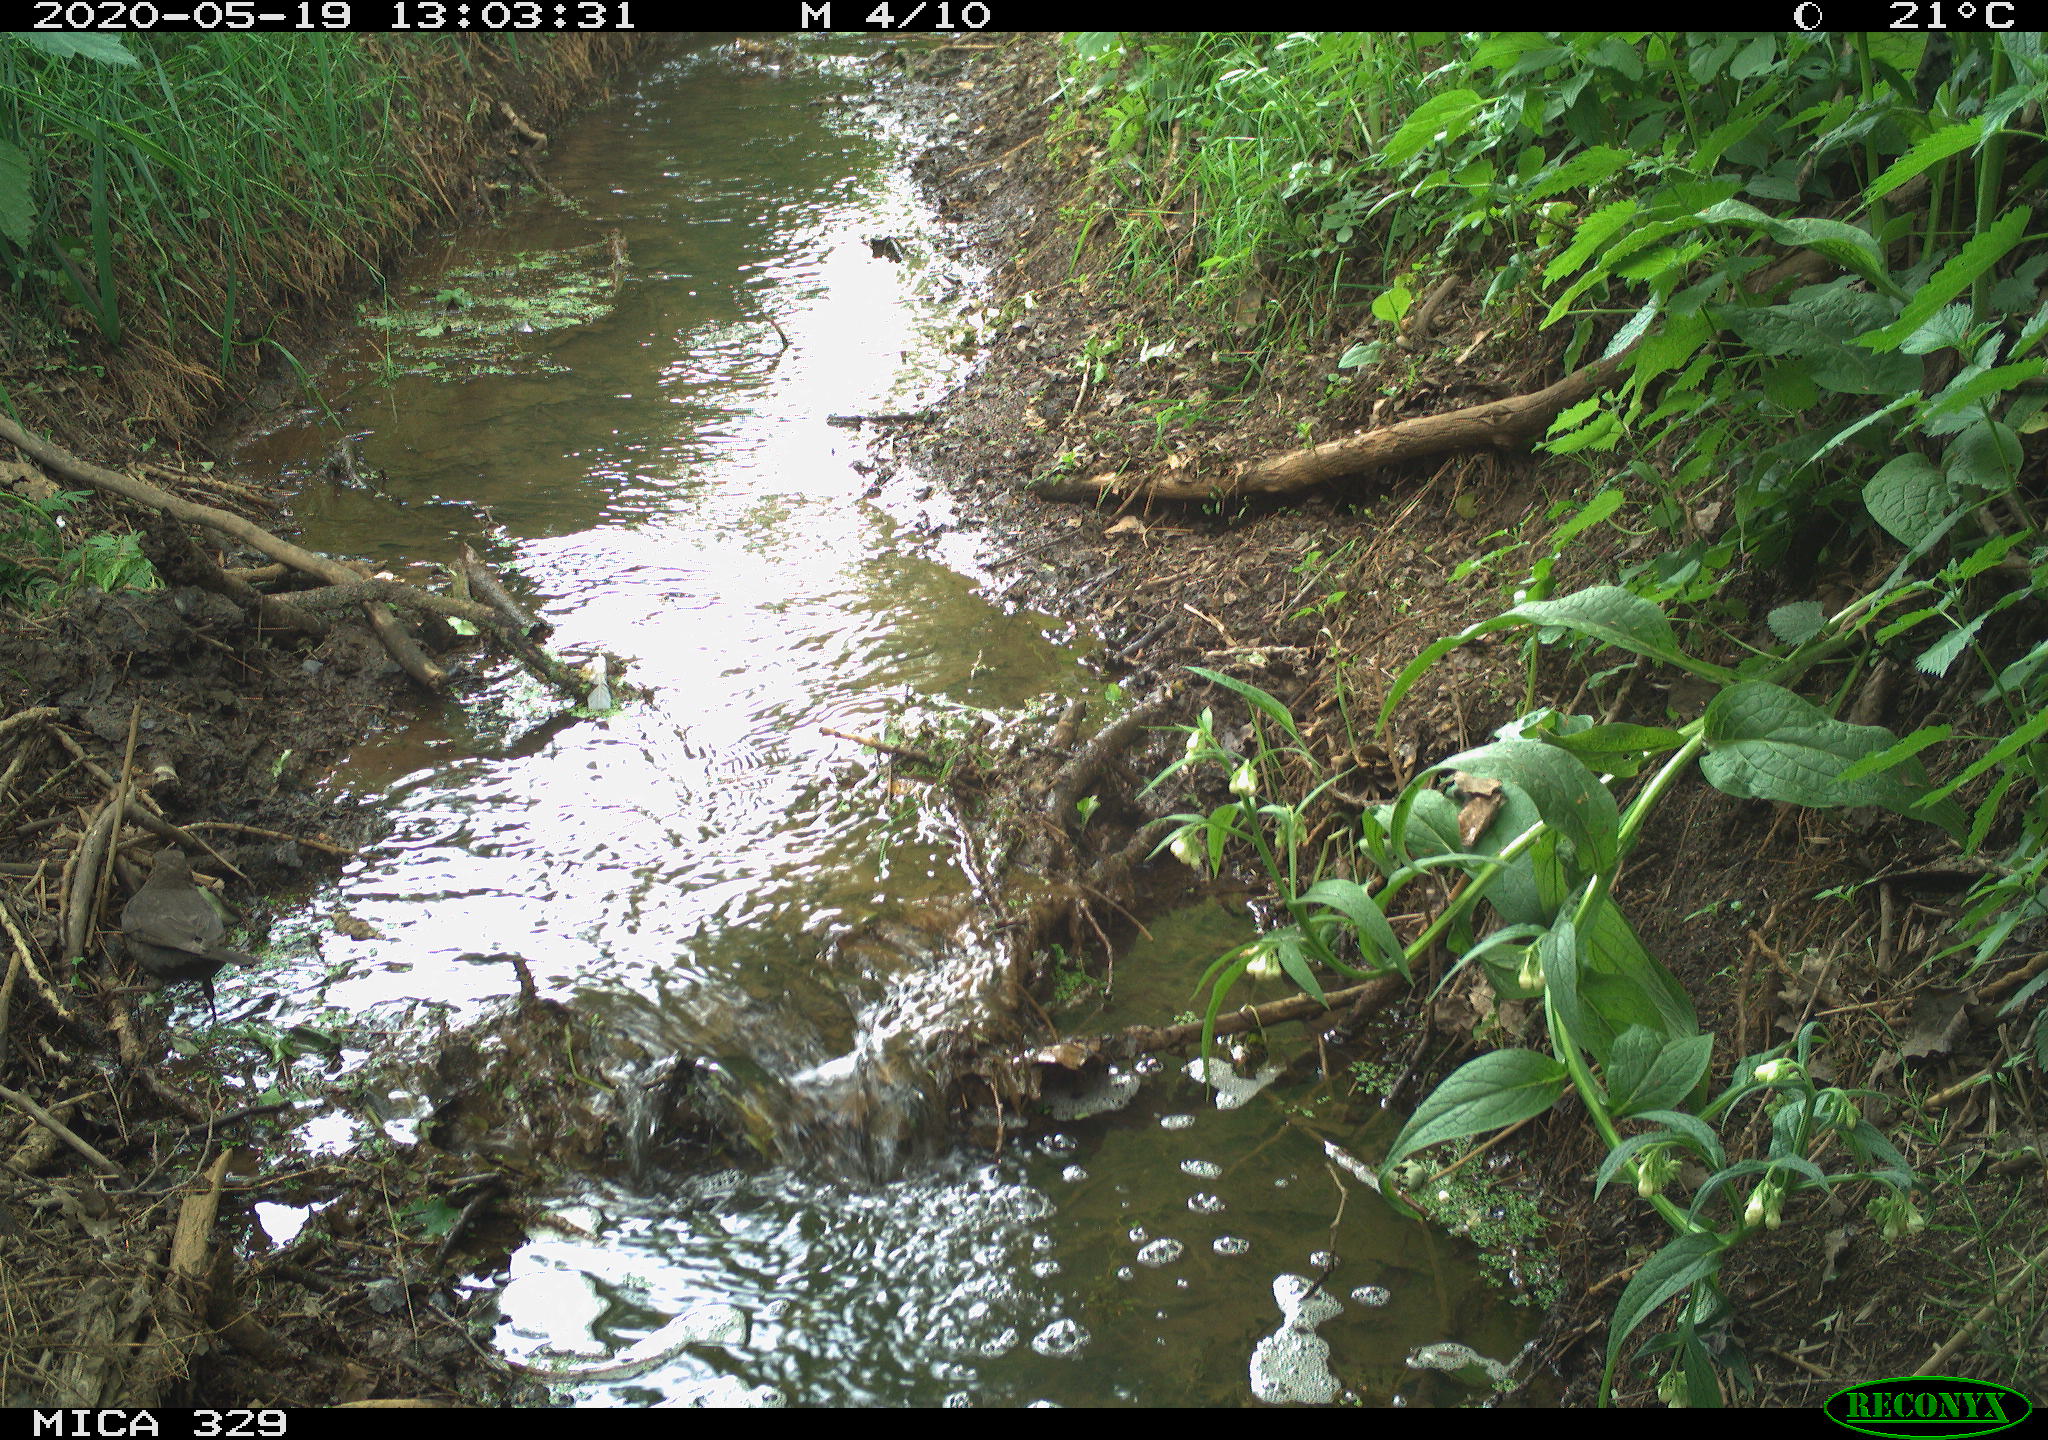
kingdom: Animalia
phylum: Chordata
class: Aves
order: Passeriformes
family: Turdidae
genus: Turdus
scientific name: Turdus merula
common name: Common blackbird
